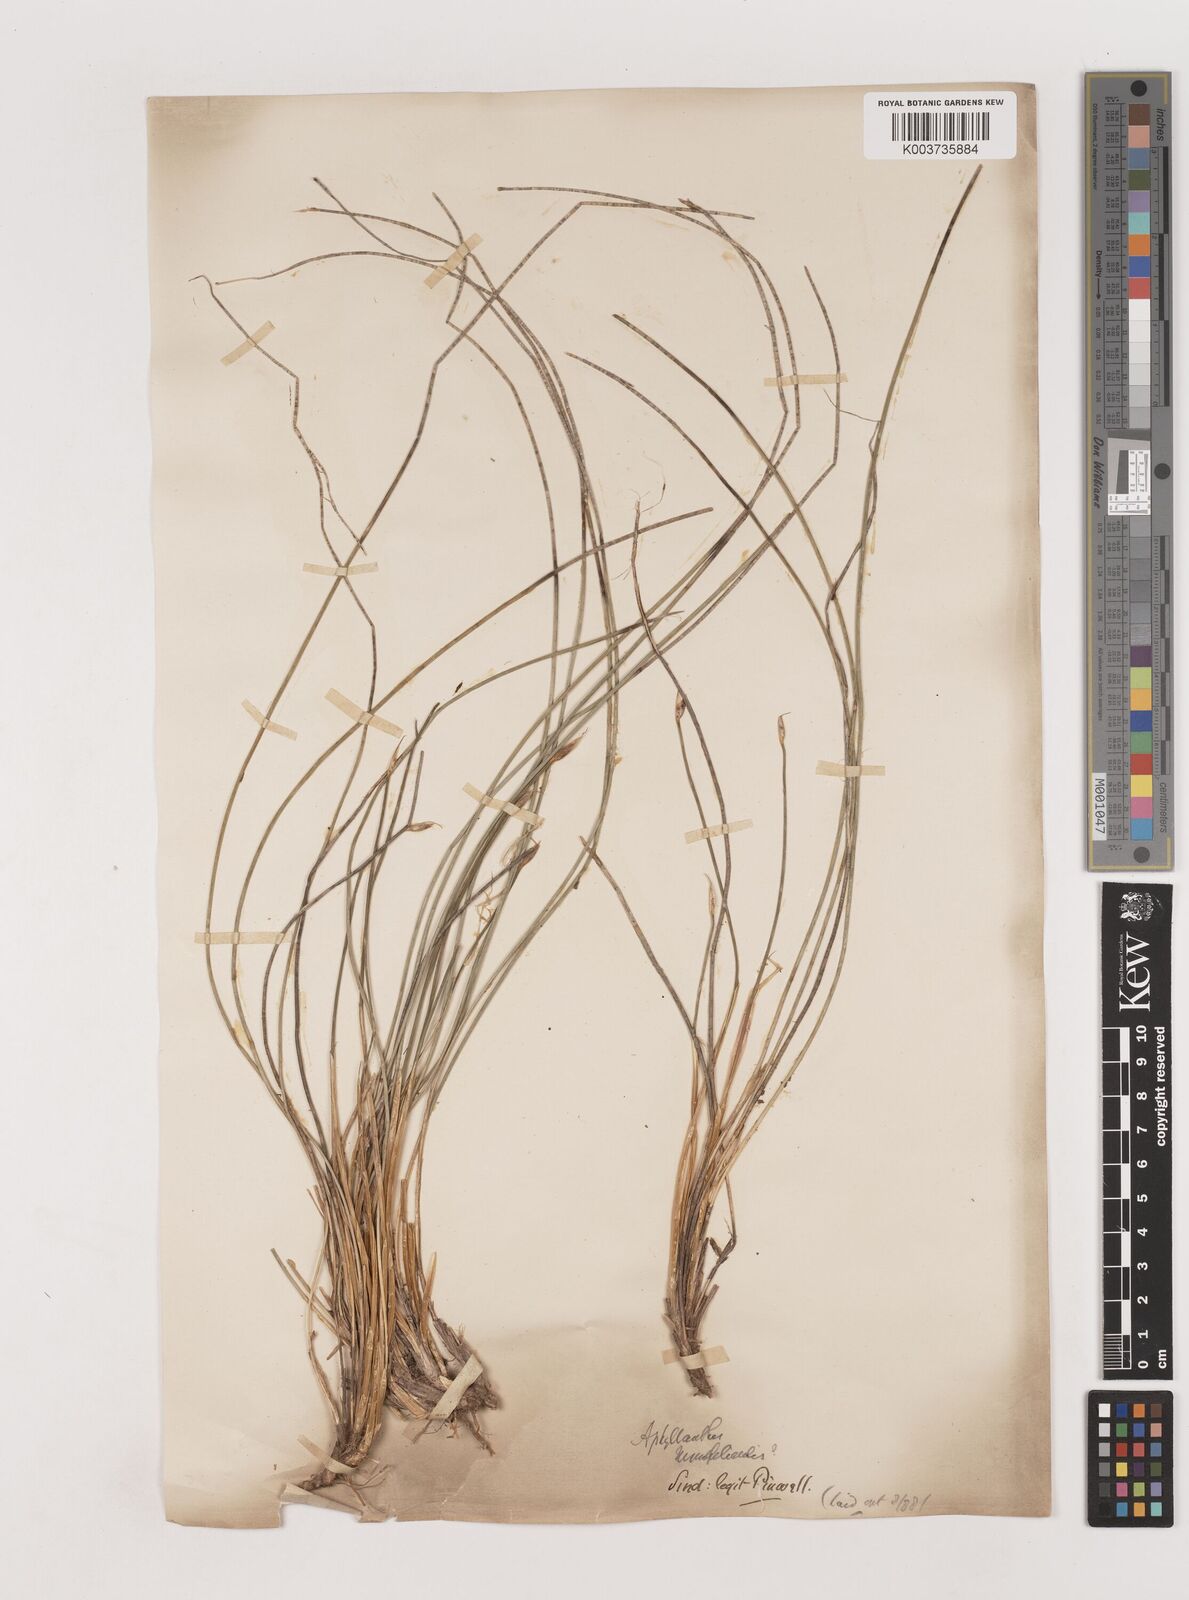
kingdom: Plantae
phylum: Tracheophyta
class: Liliopsida
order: Asparagales
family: Asparagaceae
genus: Aphyllanthes
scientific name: Aphyllanthes
